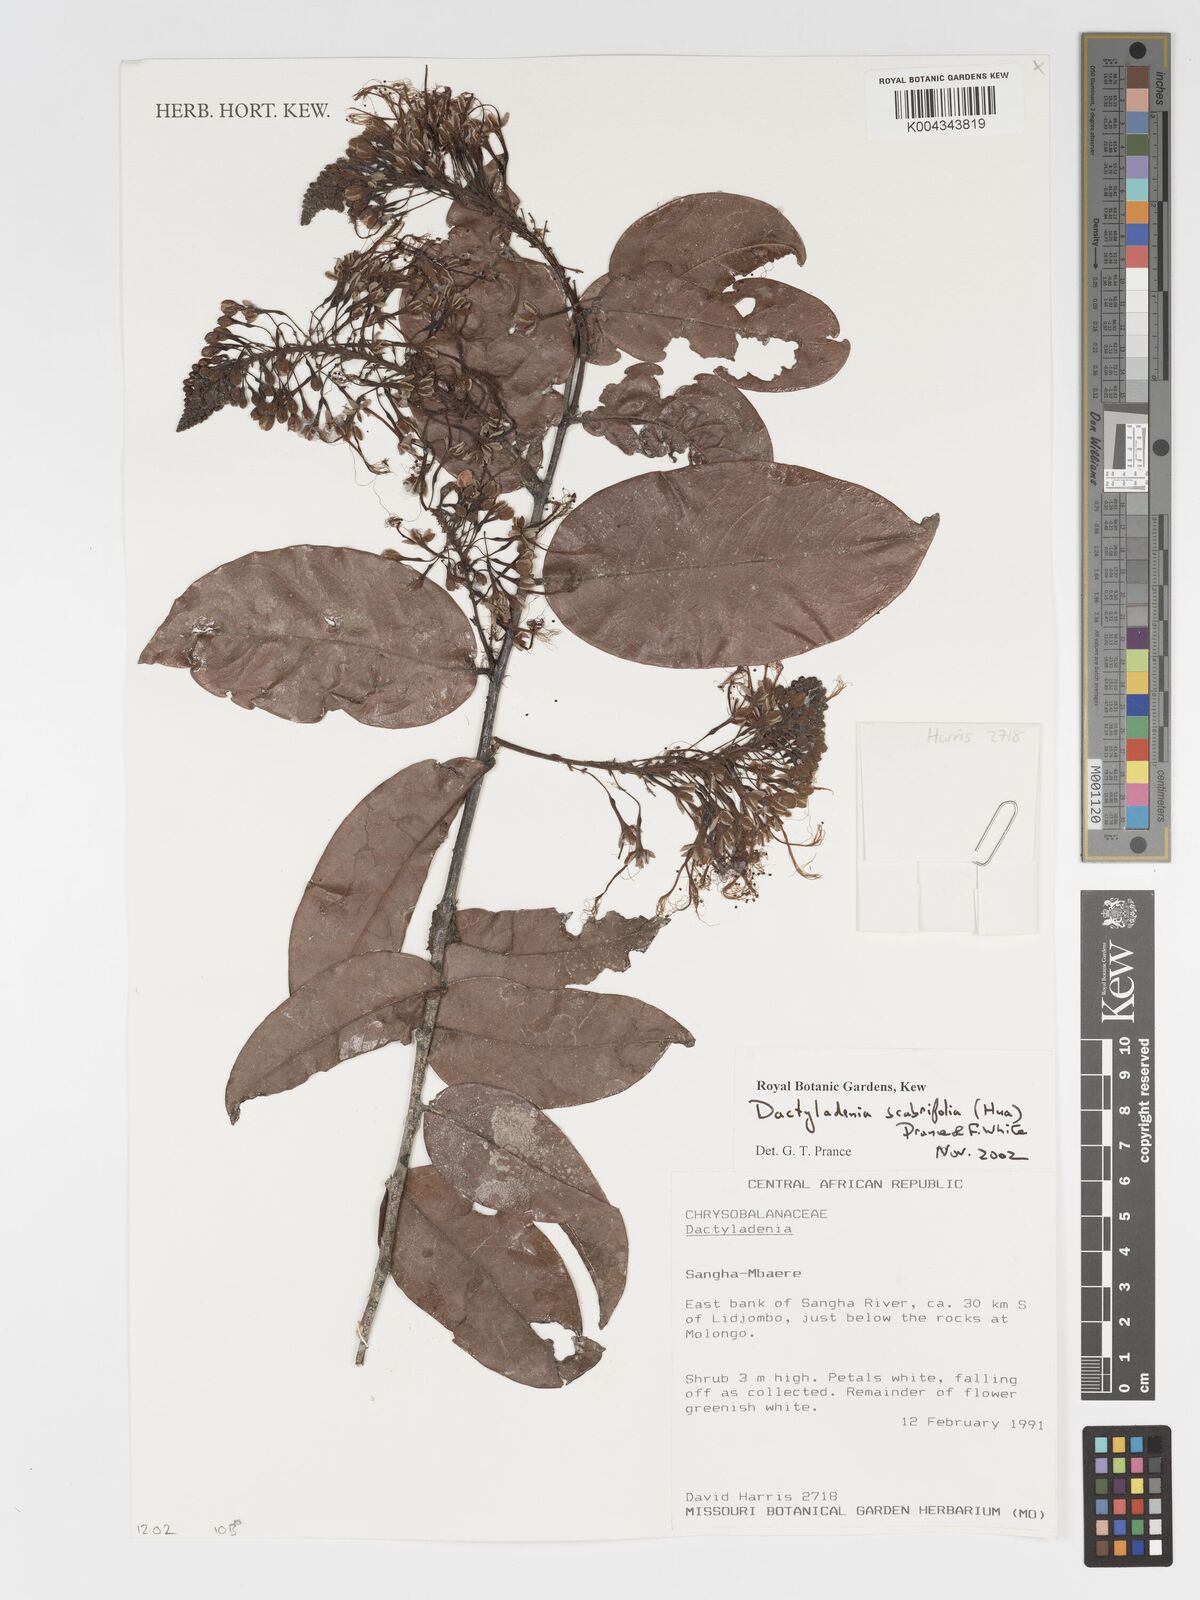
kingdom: Plantae
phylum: Tracheophyta
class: Magnoliopsida
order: Malpighiales
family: Chrysobalanaceae
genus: Dactyladenia
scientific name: Dactyladenia scabrifolia
